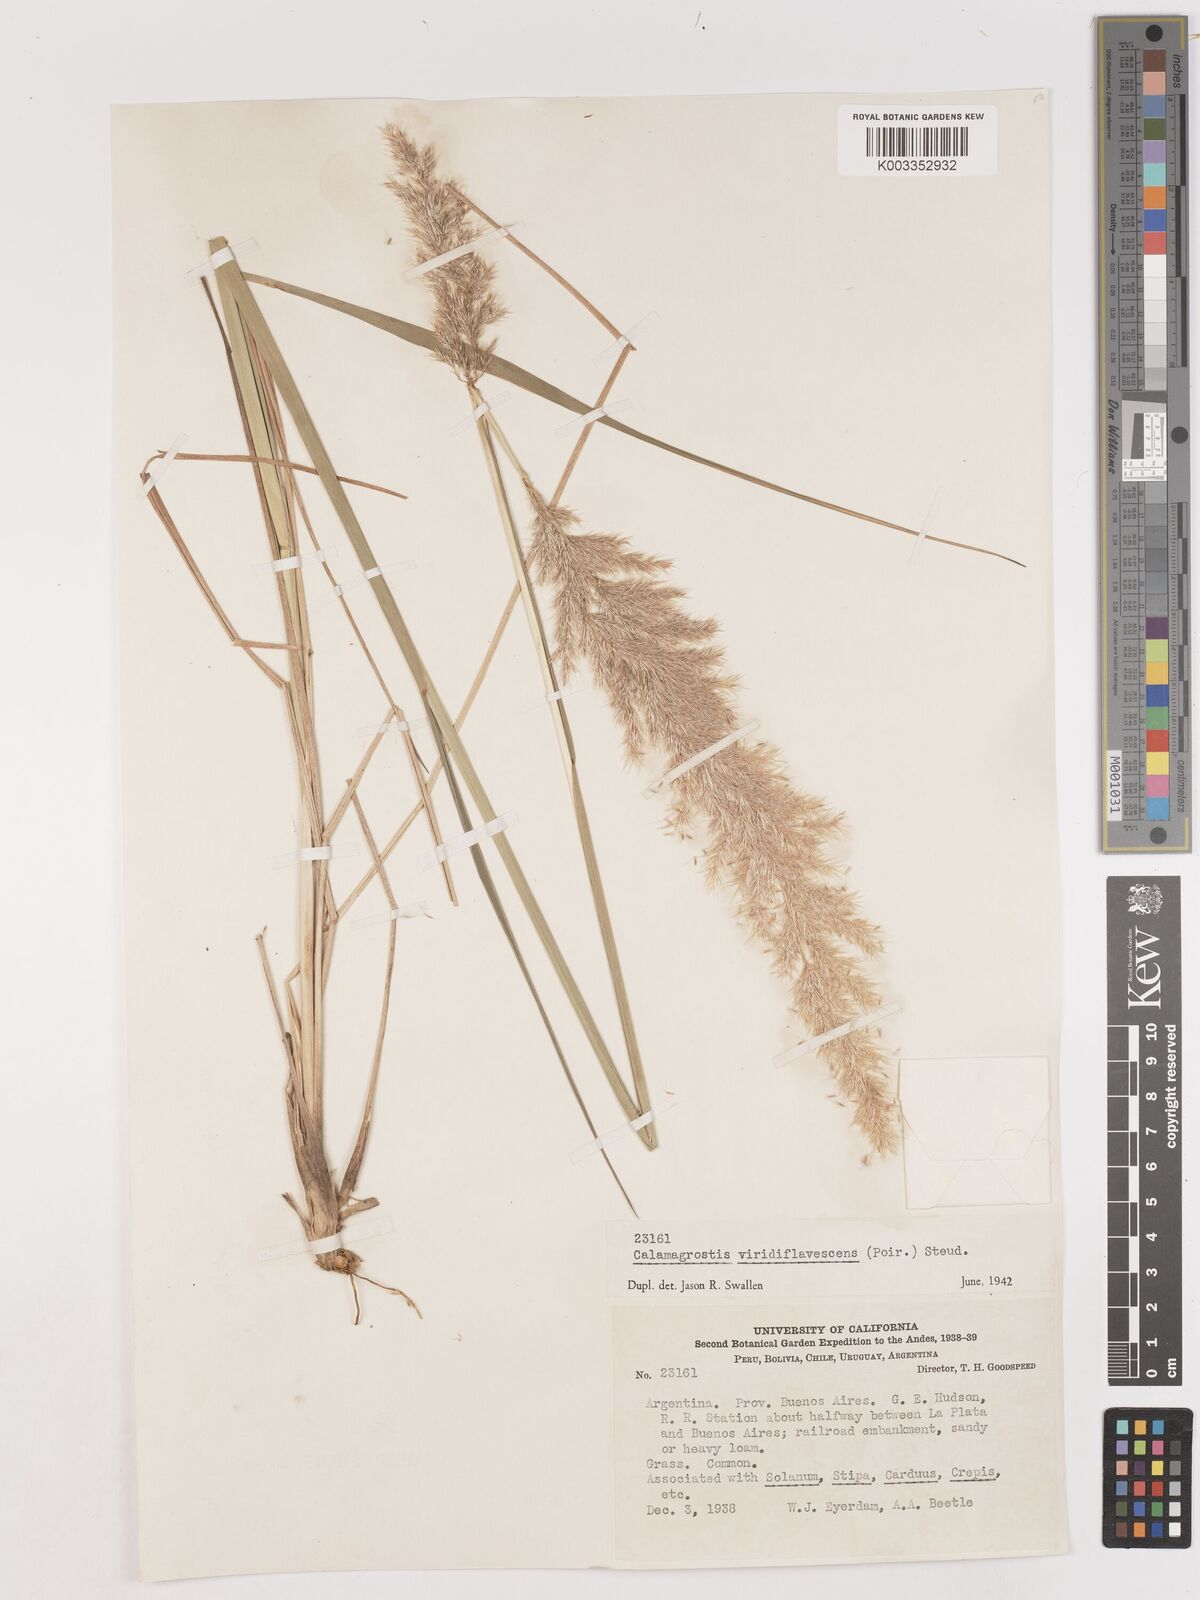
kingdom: Plantae
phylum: Tracheophyta
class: Liliopsida
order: Poales
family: Poaceae
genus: Cinnagrostis
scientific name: Cinnagrostis viridiflavescens
